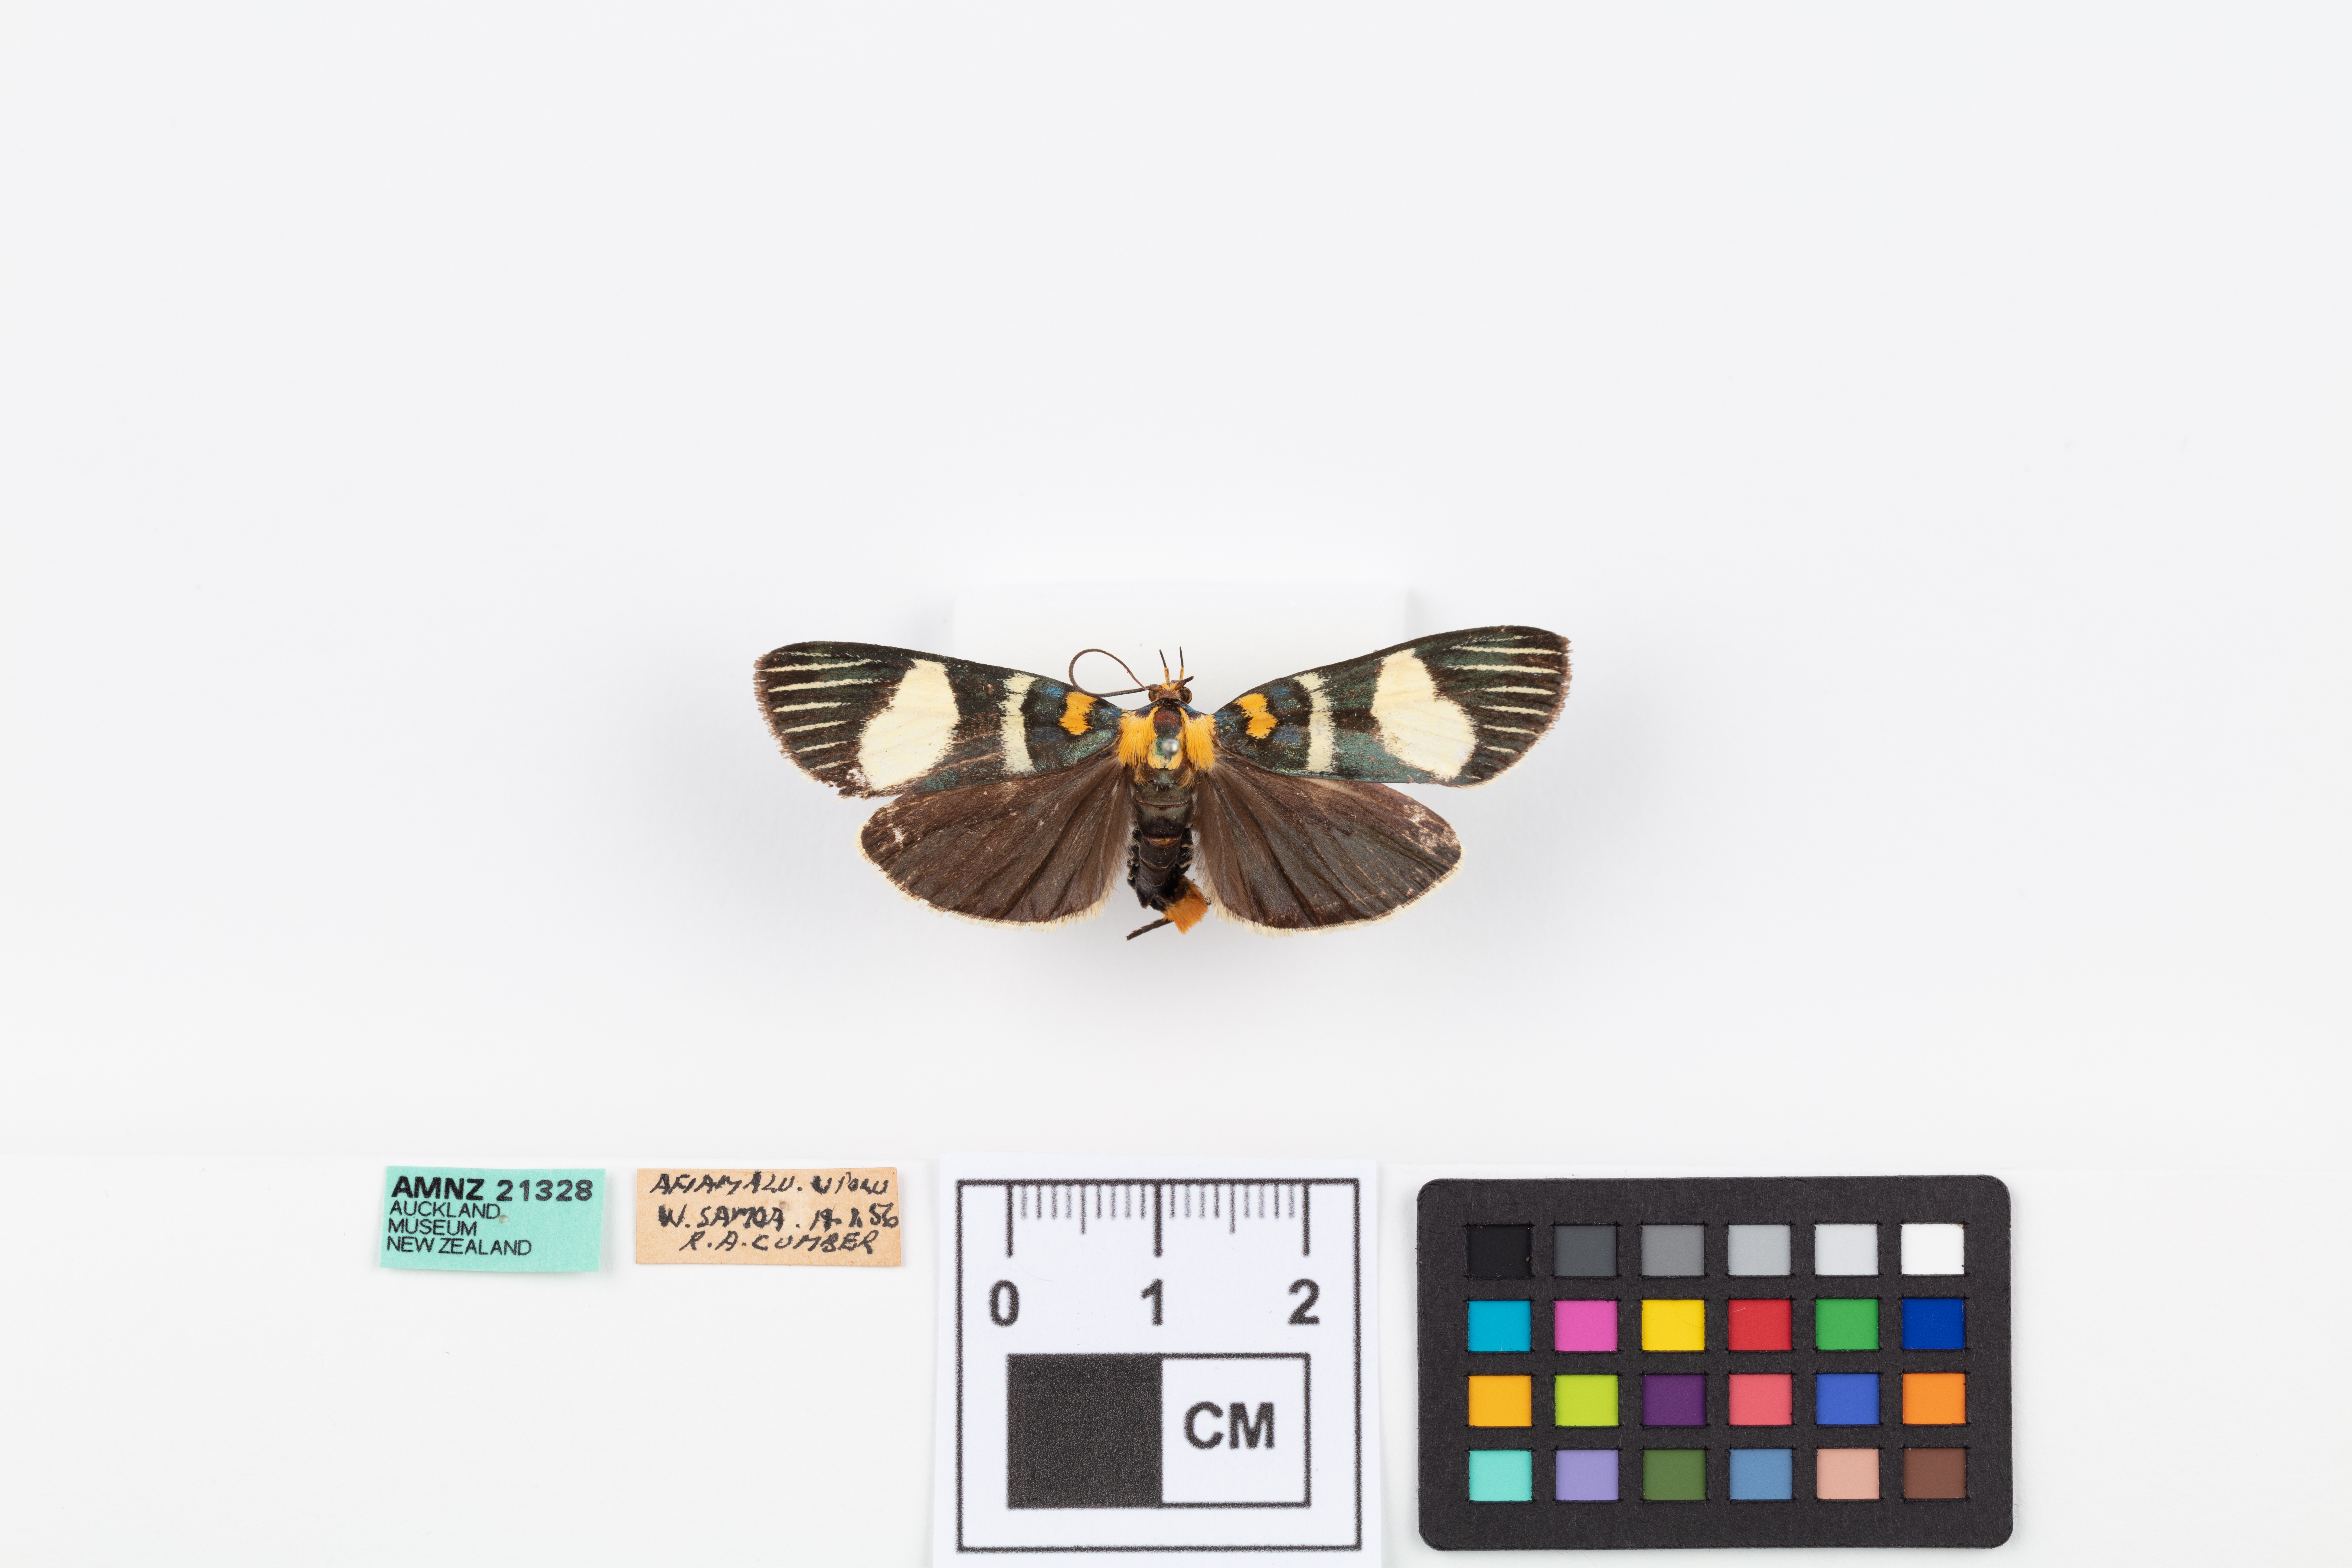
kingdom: Animalia
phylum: Arthropoda
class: Insecta
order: Lepidoptera
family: Pyralidae
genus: Vitessa
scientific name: Vitessa
